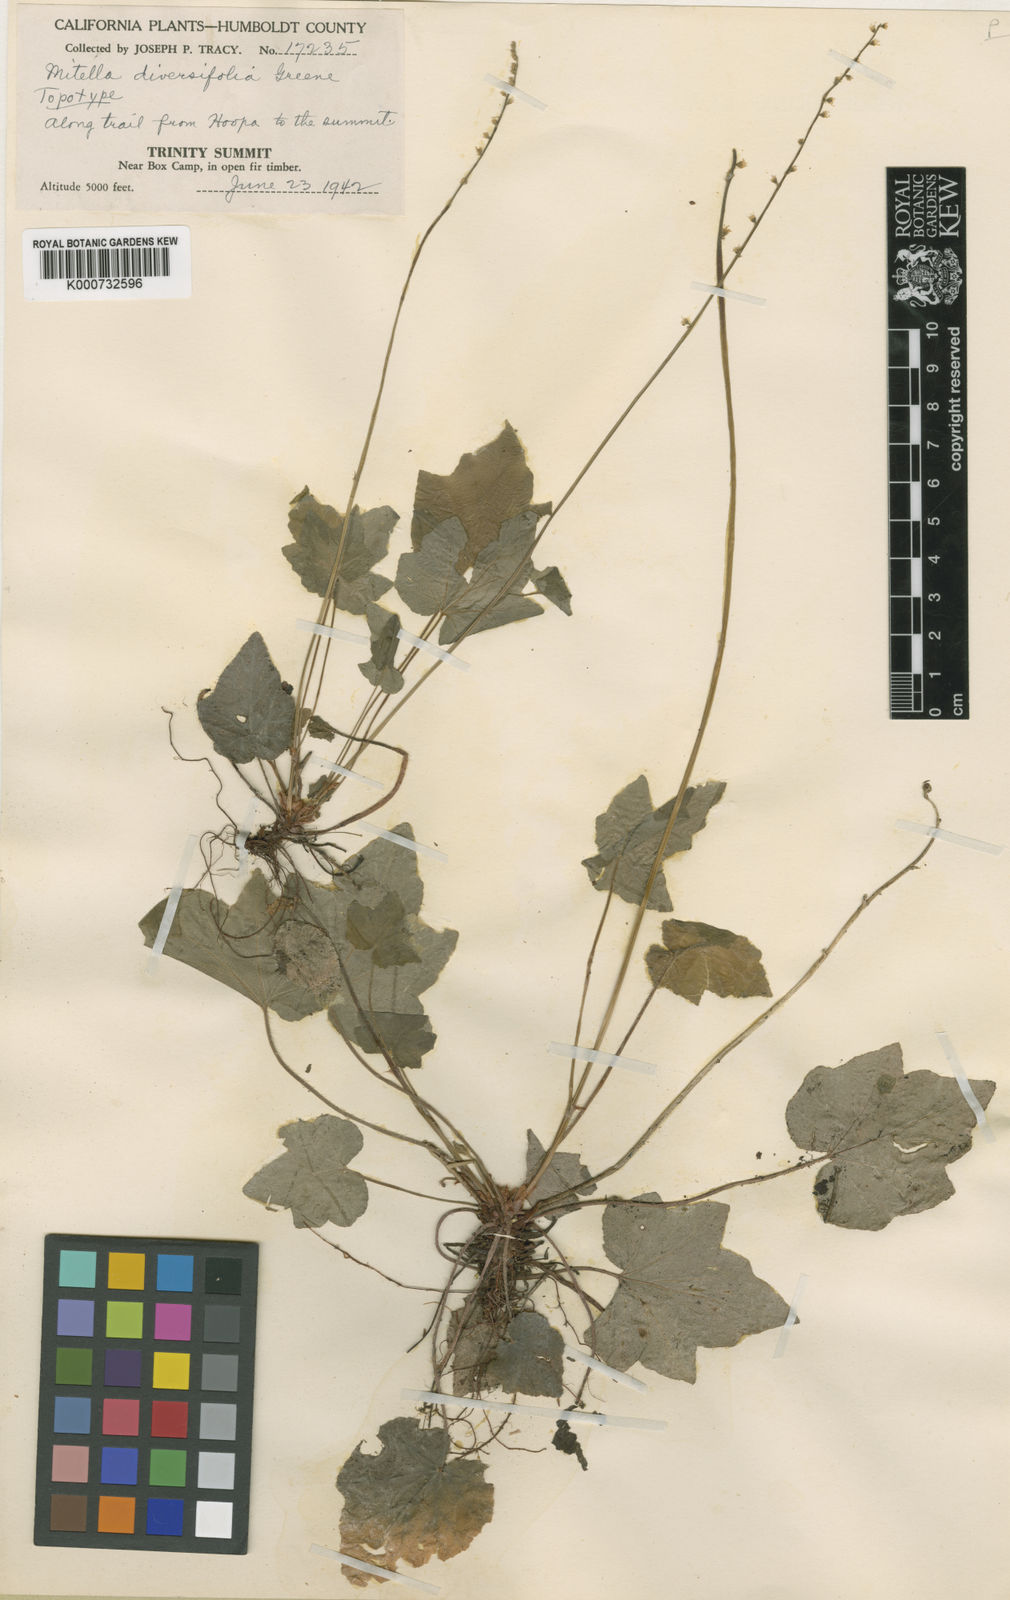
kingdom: Plantae
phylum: Tracheophyta
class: Magnoliopsida
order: Saxifragales
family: Saxifragaceae
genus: Ozomelis
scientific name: Ozomelis diversifolia
